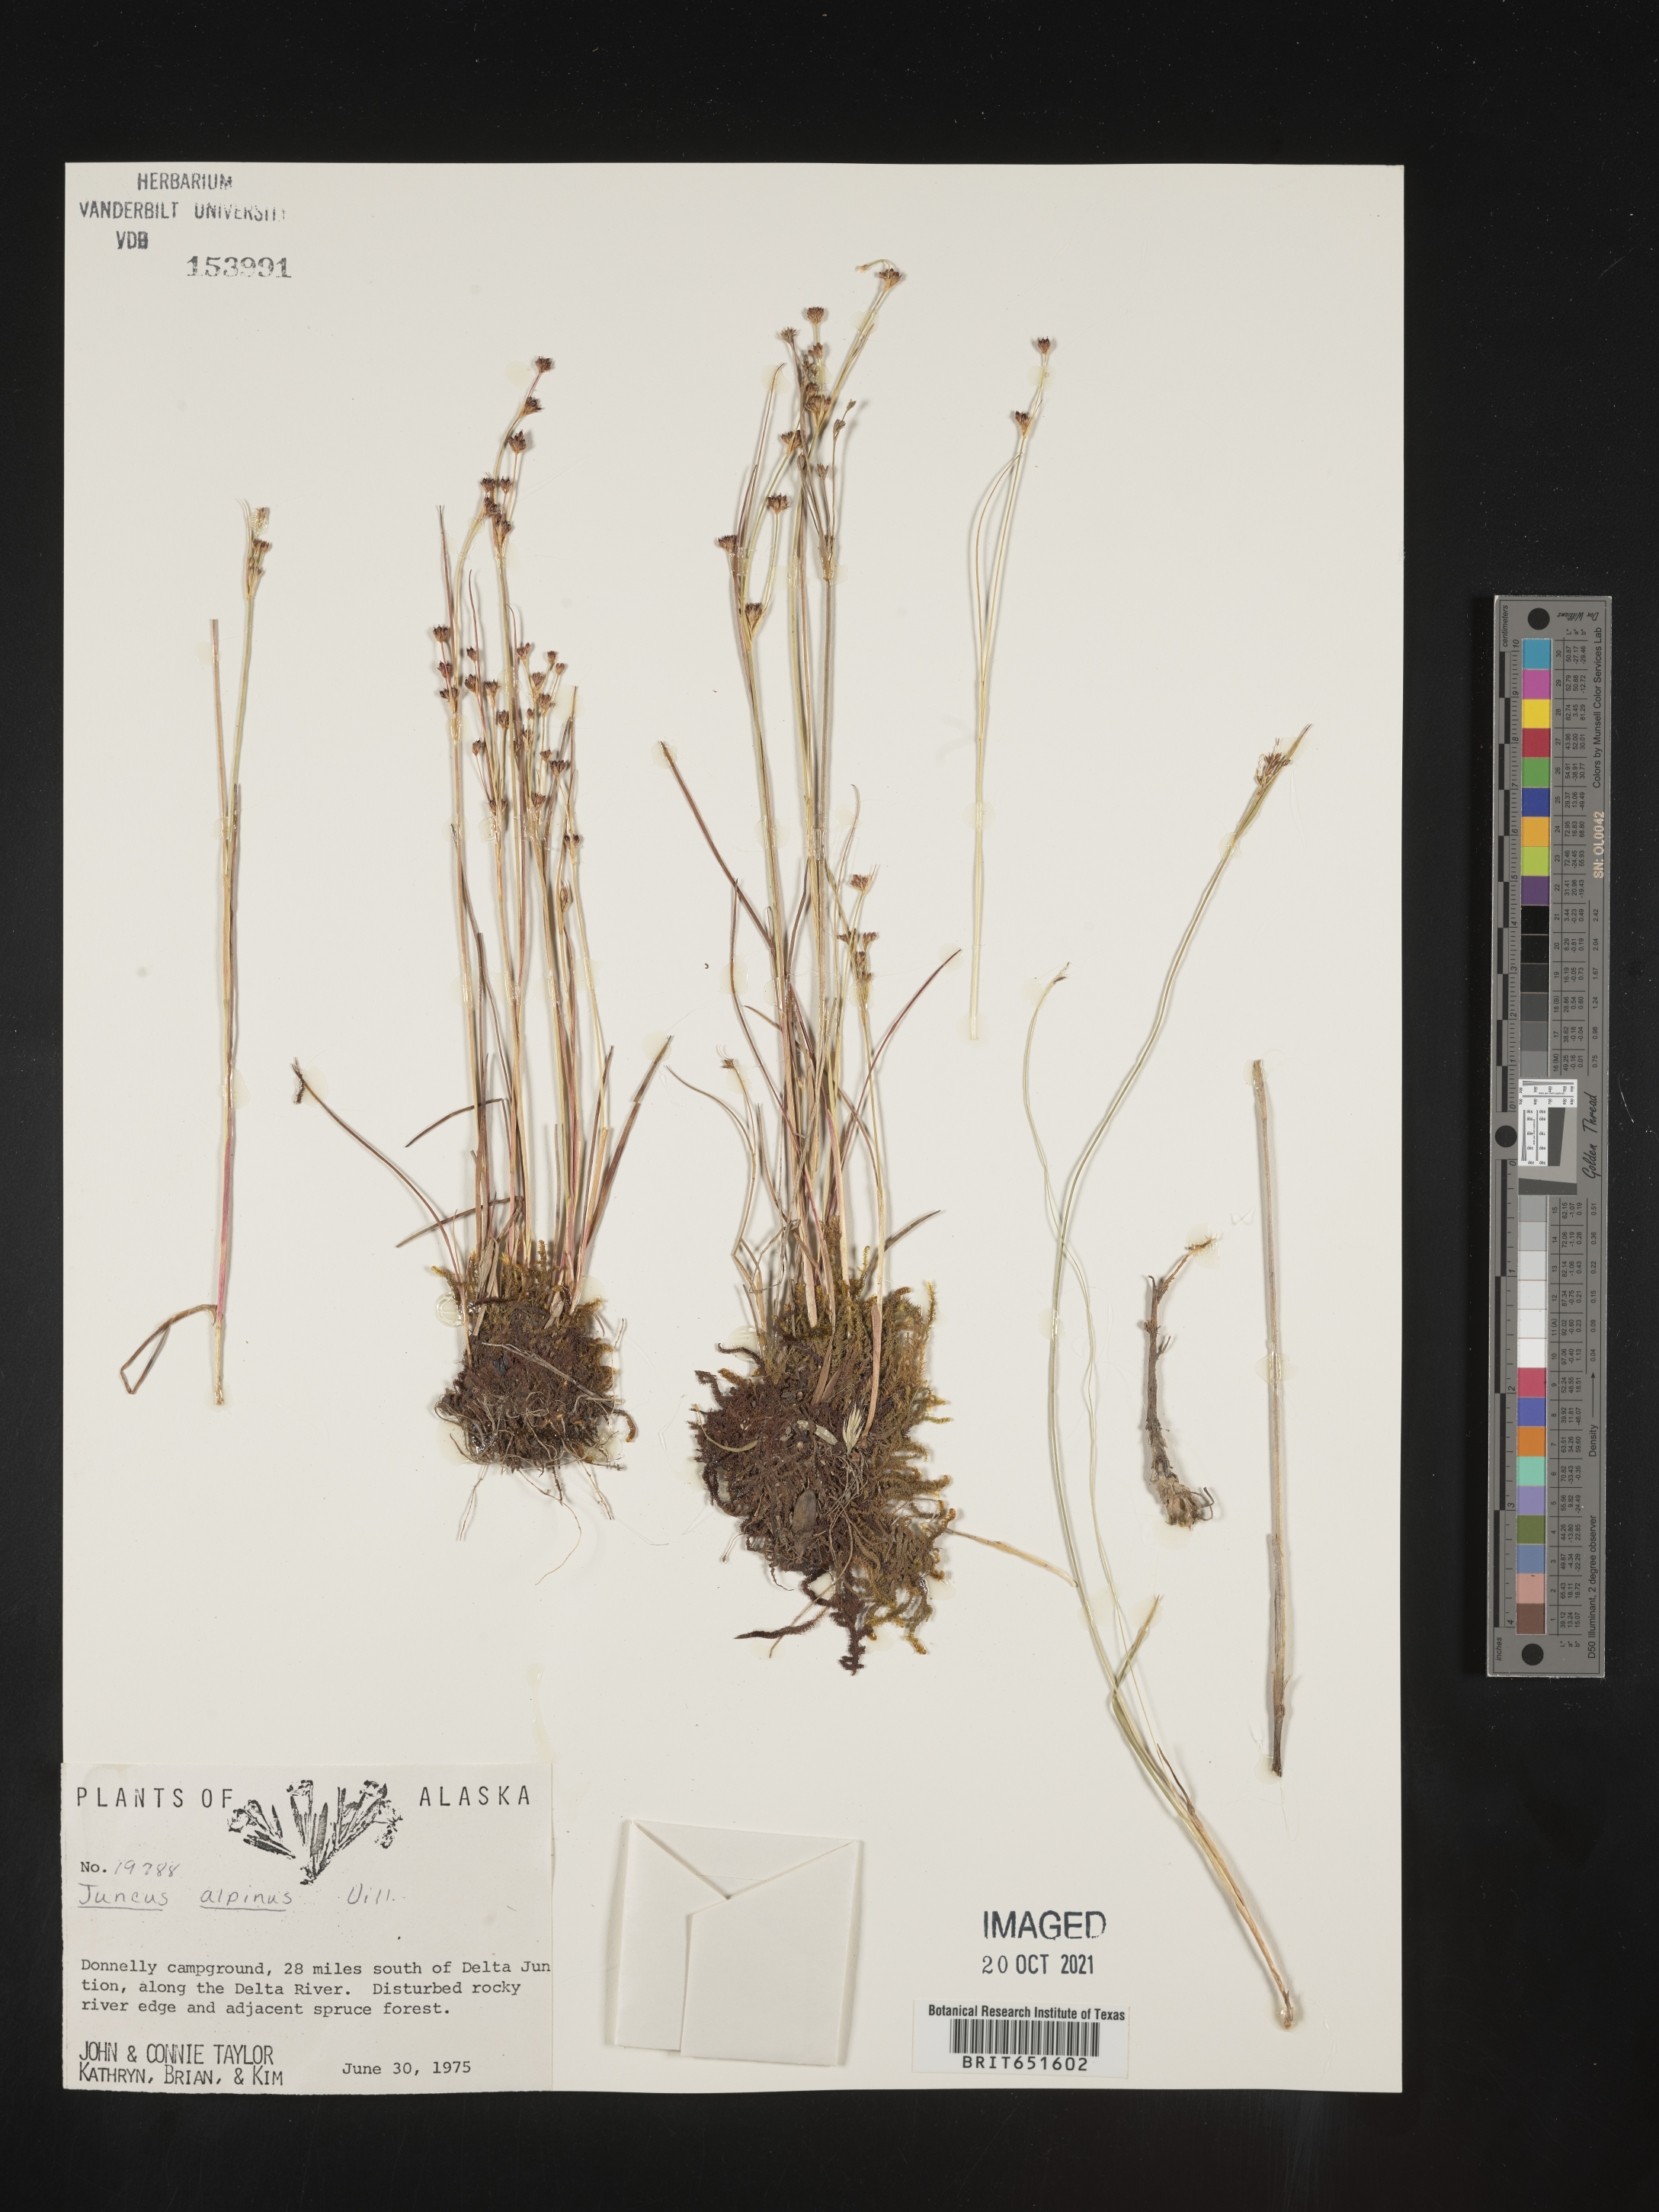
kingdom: Plantae
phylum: Tracheophyta
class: Liliopsida
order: Poales
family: Juncaceae
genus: Juncus
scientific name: Juncus alpinoarticulatus
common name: Alpine rush
